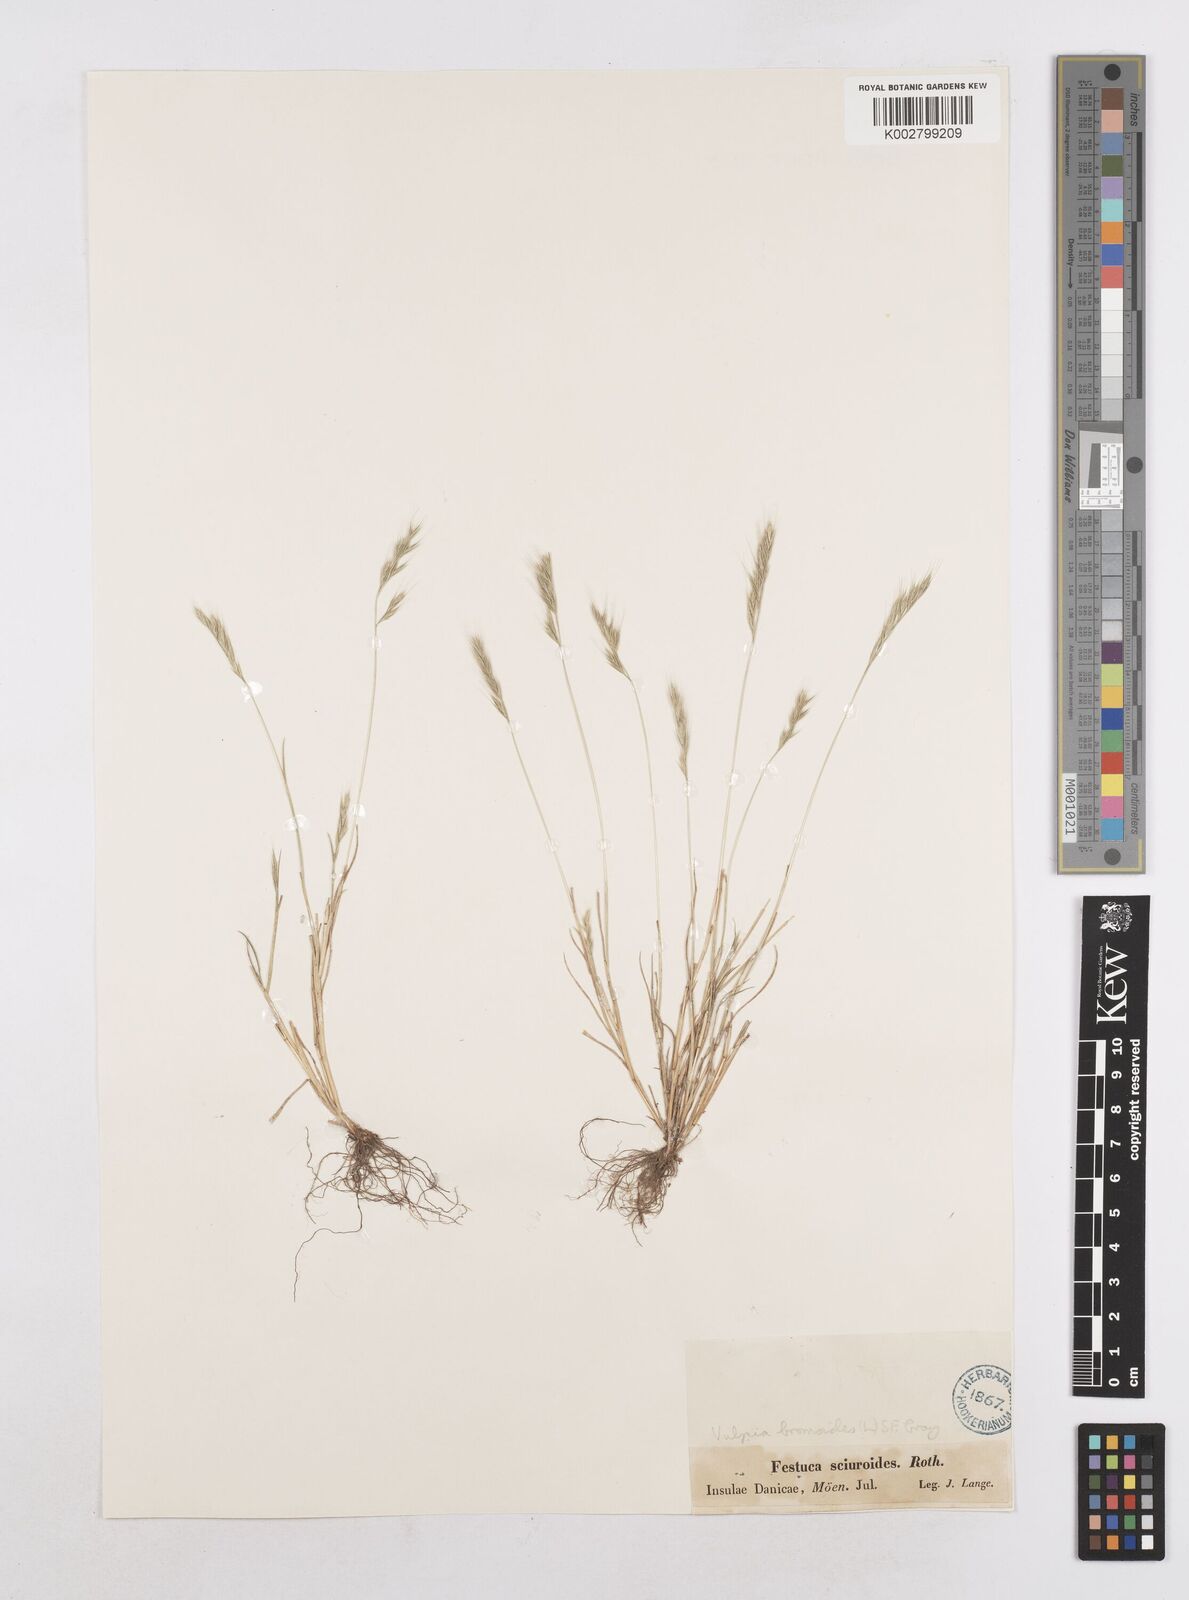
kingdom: Plantae
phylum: Tracheophyta
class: Liliopsida
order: Poales
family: Poaceae
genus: Festuca
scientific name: Festuca bromoides
